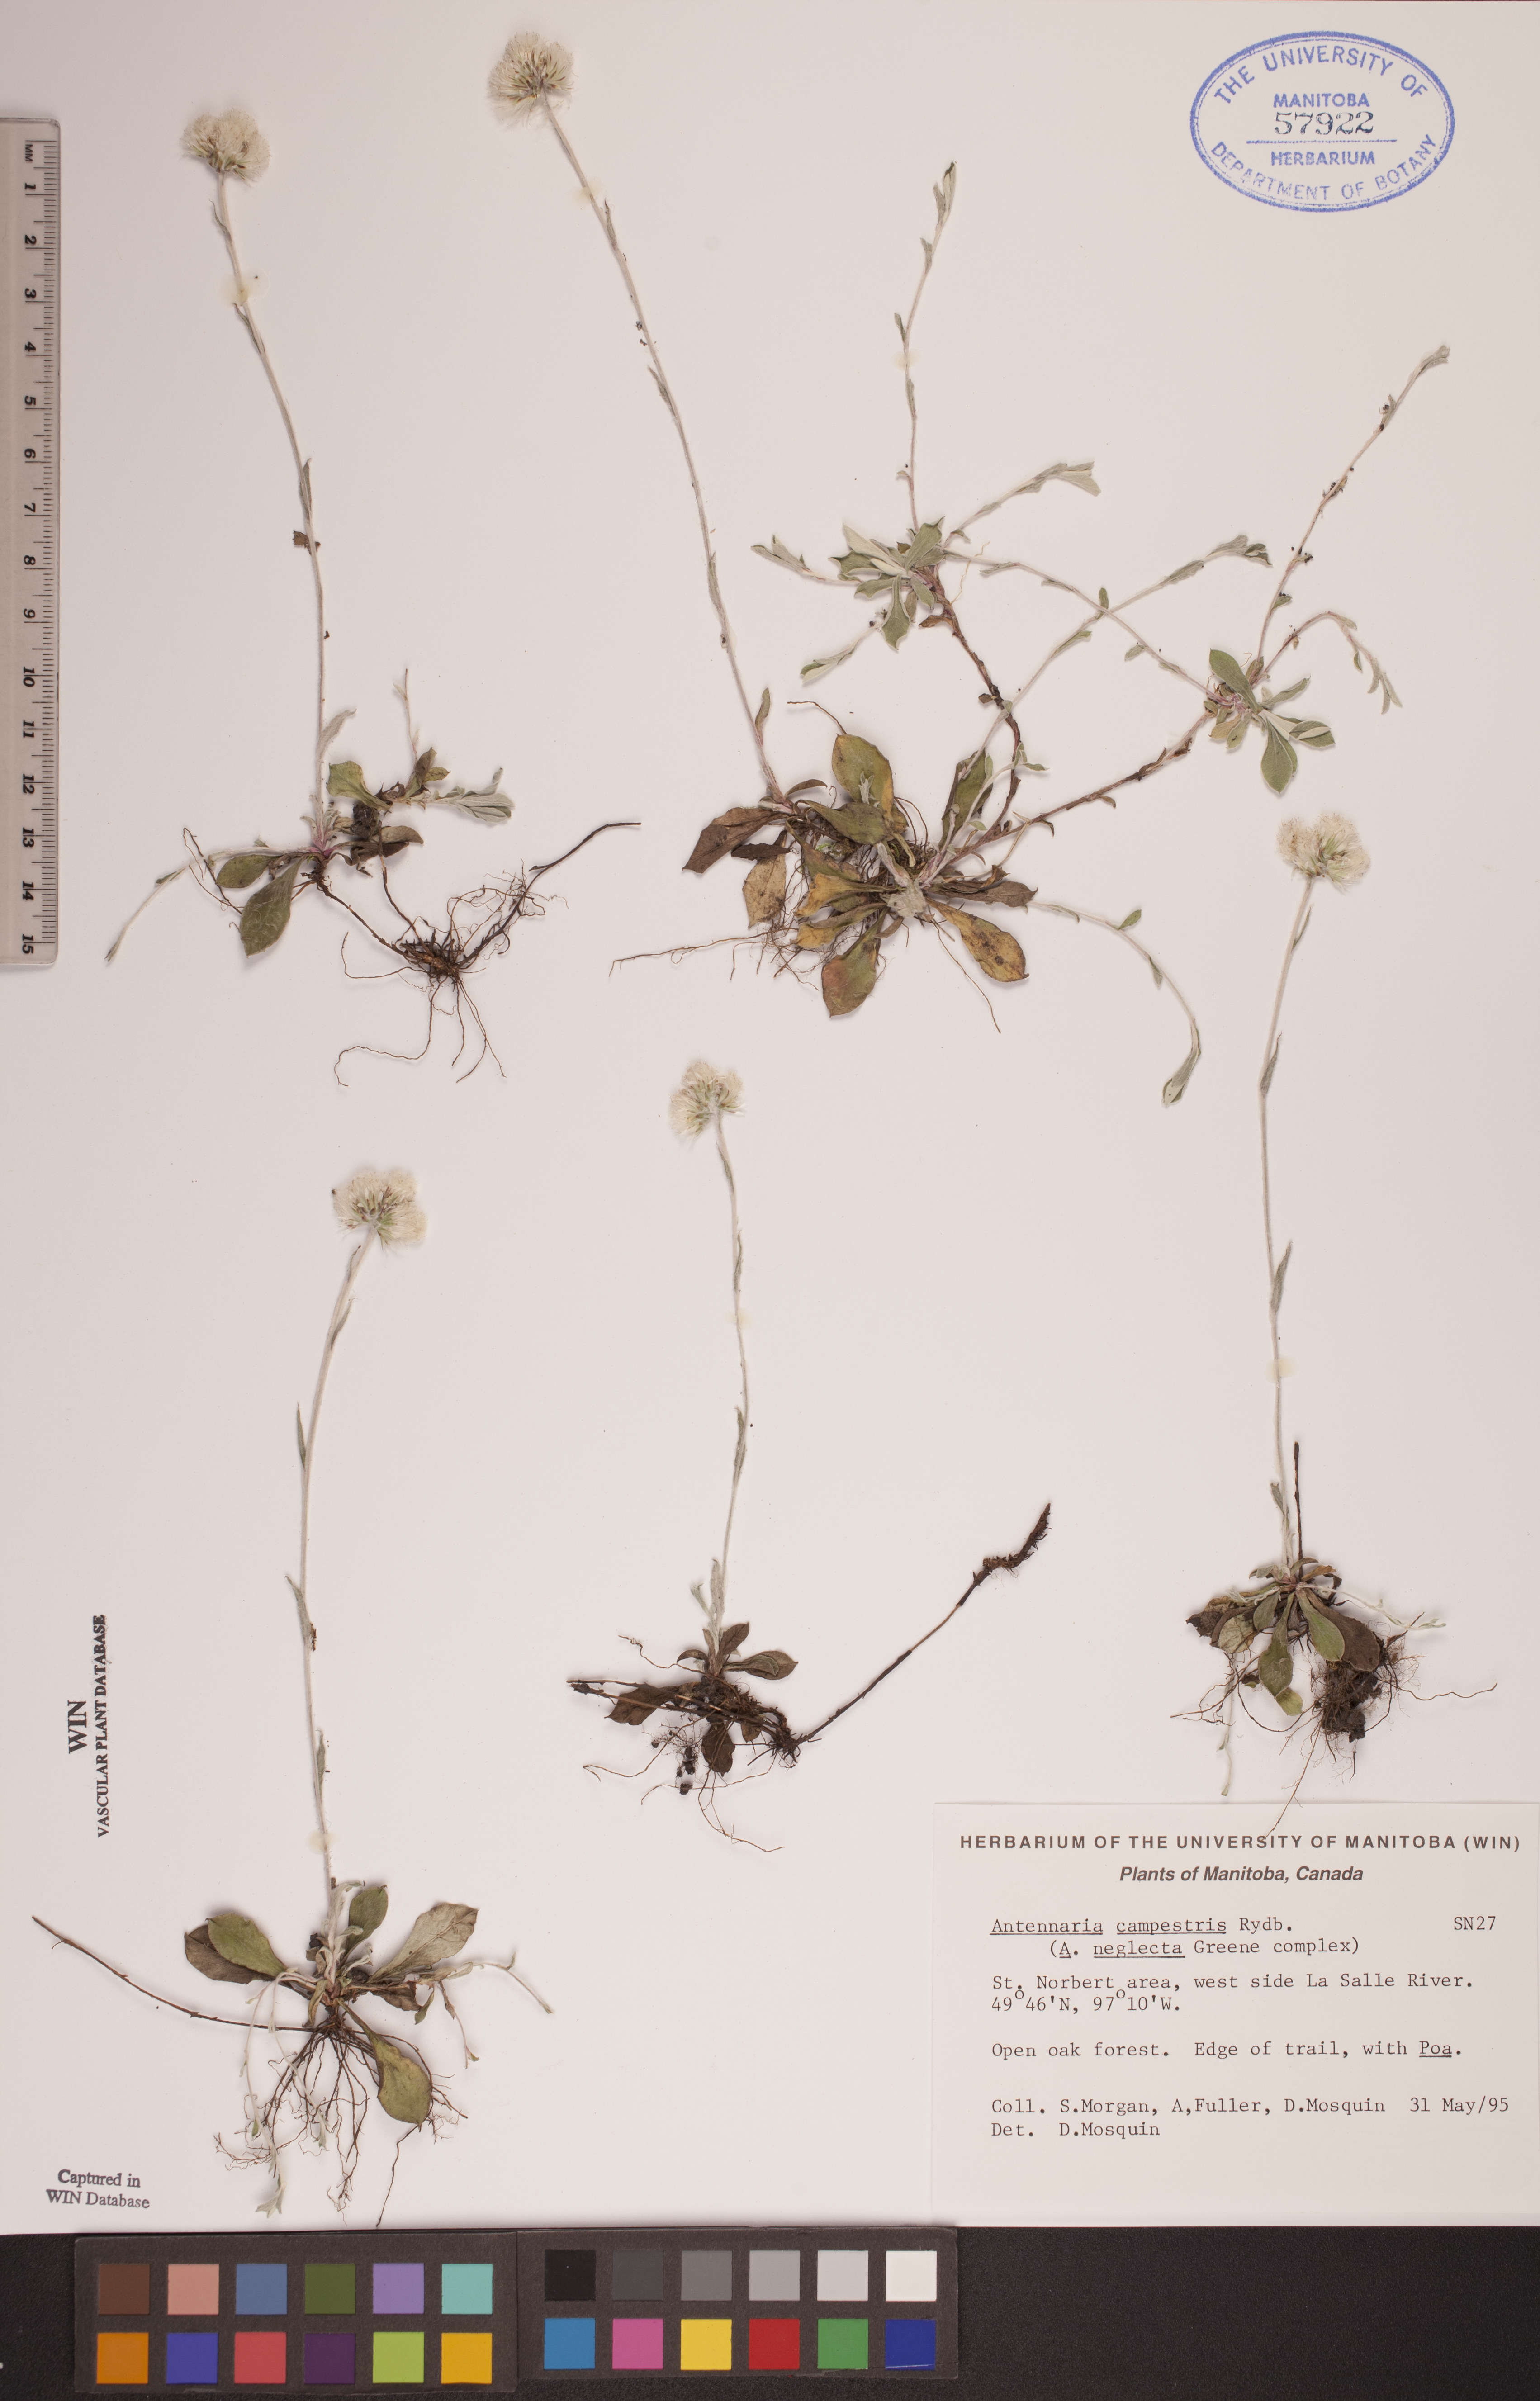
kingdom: Plantae
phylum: Tracheophyta
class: Magnoliopsida
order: Asterales
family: Asteraceae
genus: Antennaria
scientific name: Antennaria neglecta
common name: Field pussytoes
